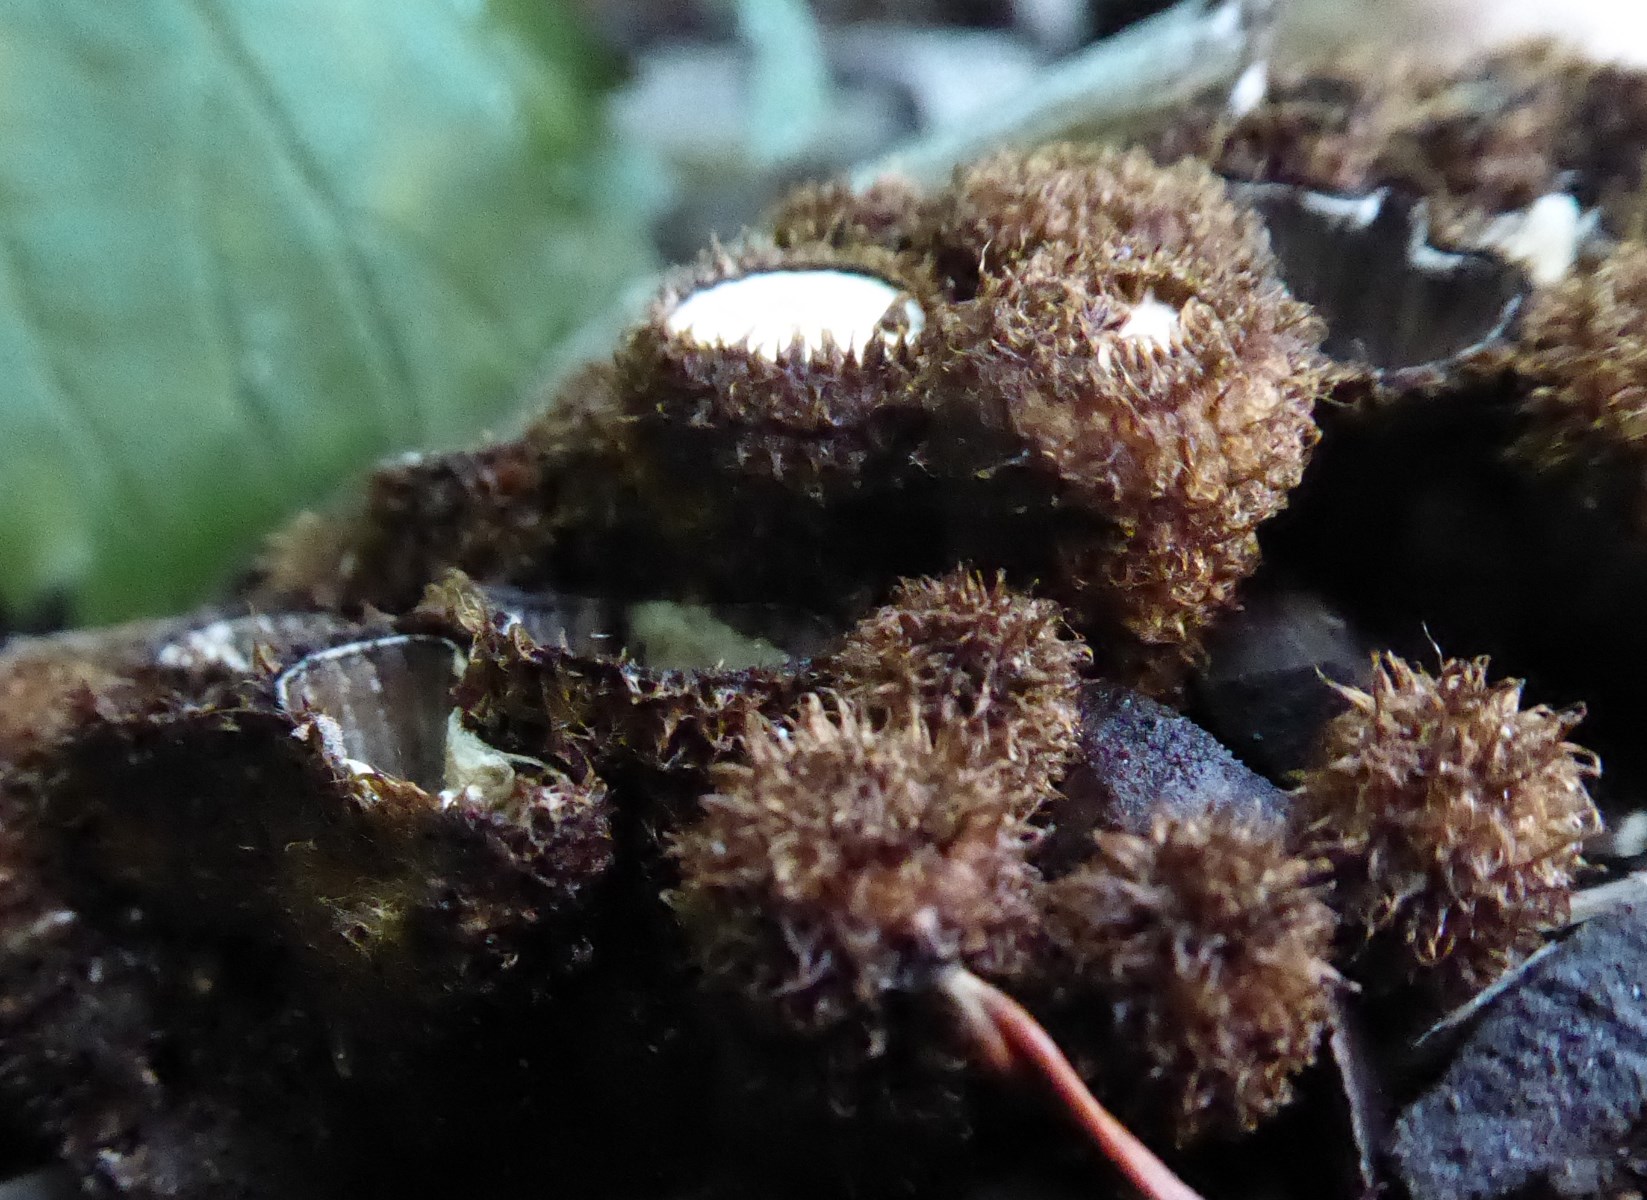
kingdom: Fungi
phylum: Basidiomycota
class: Agaricomycetes
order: Agaricales
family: Agaricaceae
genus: Cyathus
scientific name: Cyathus striatus
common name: stribet redesvamp
